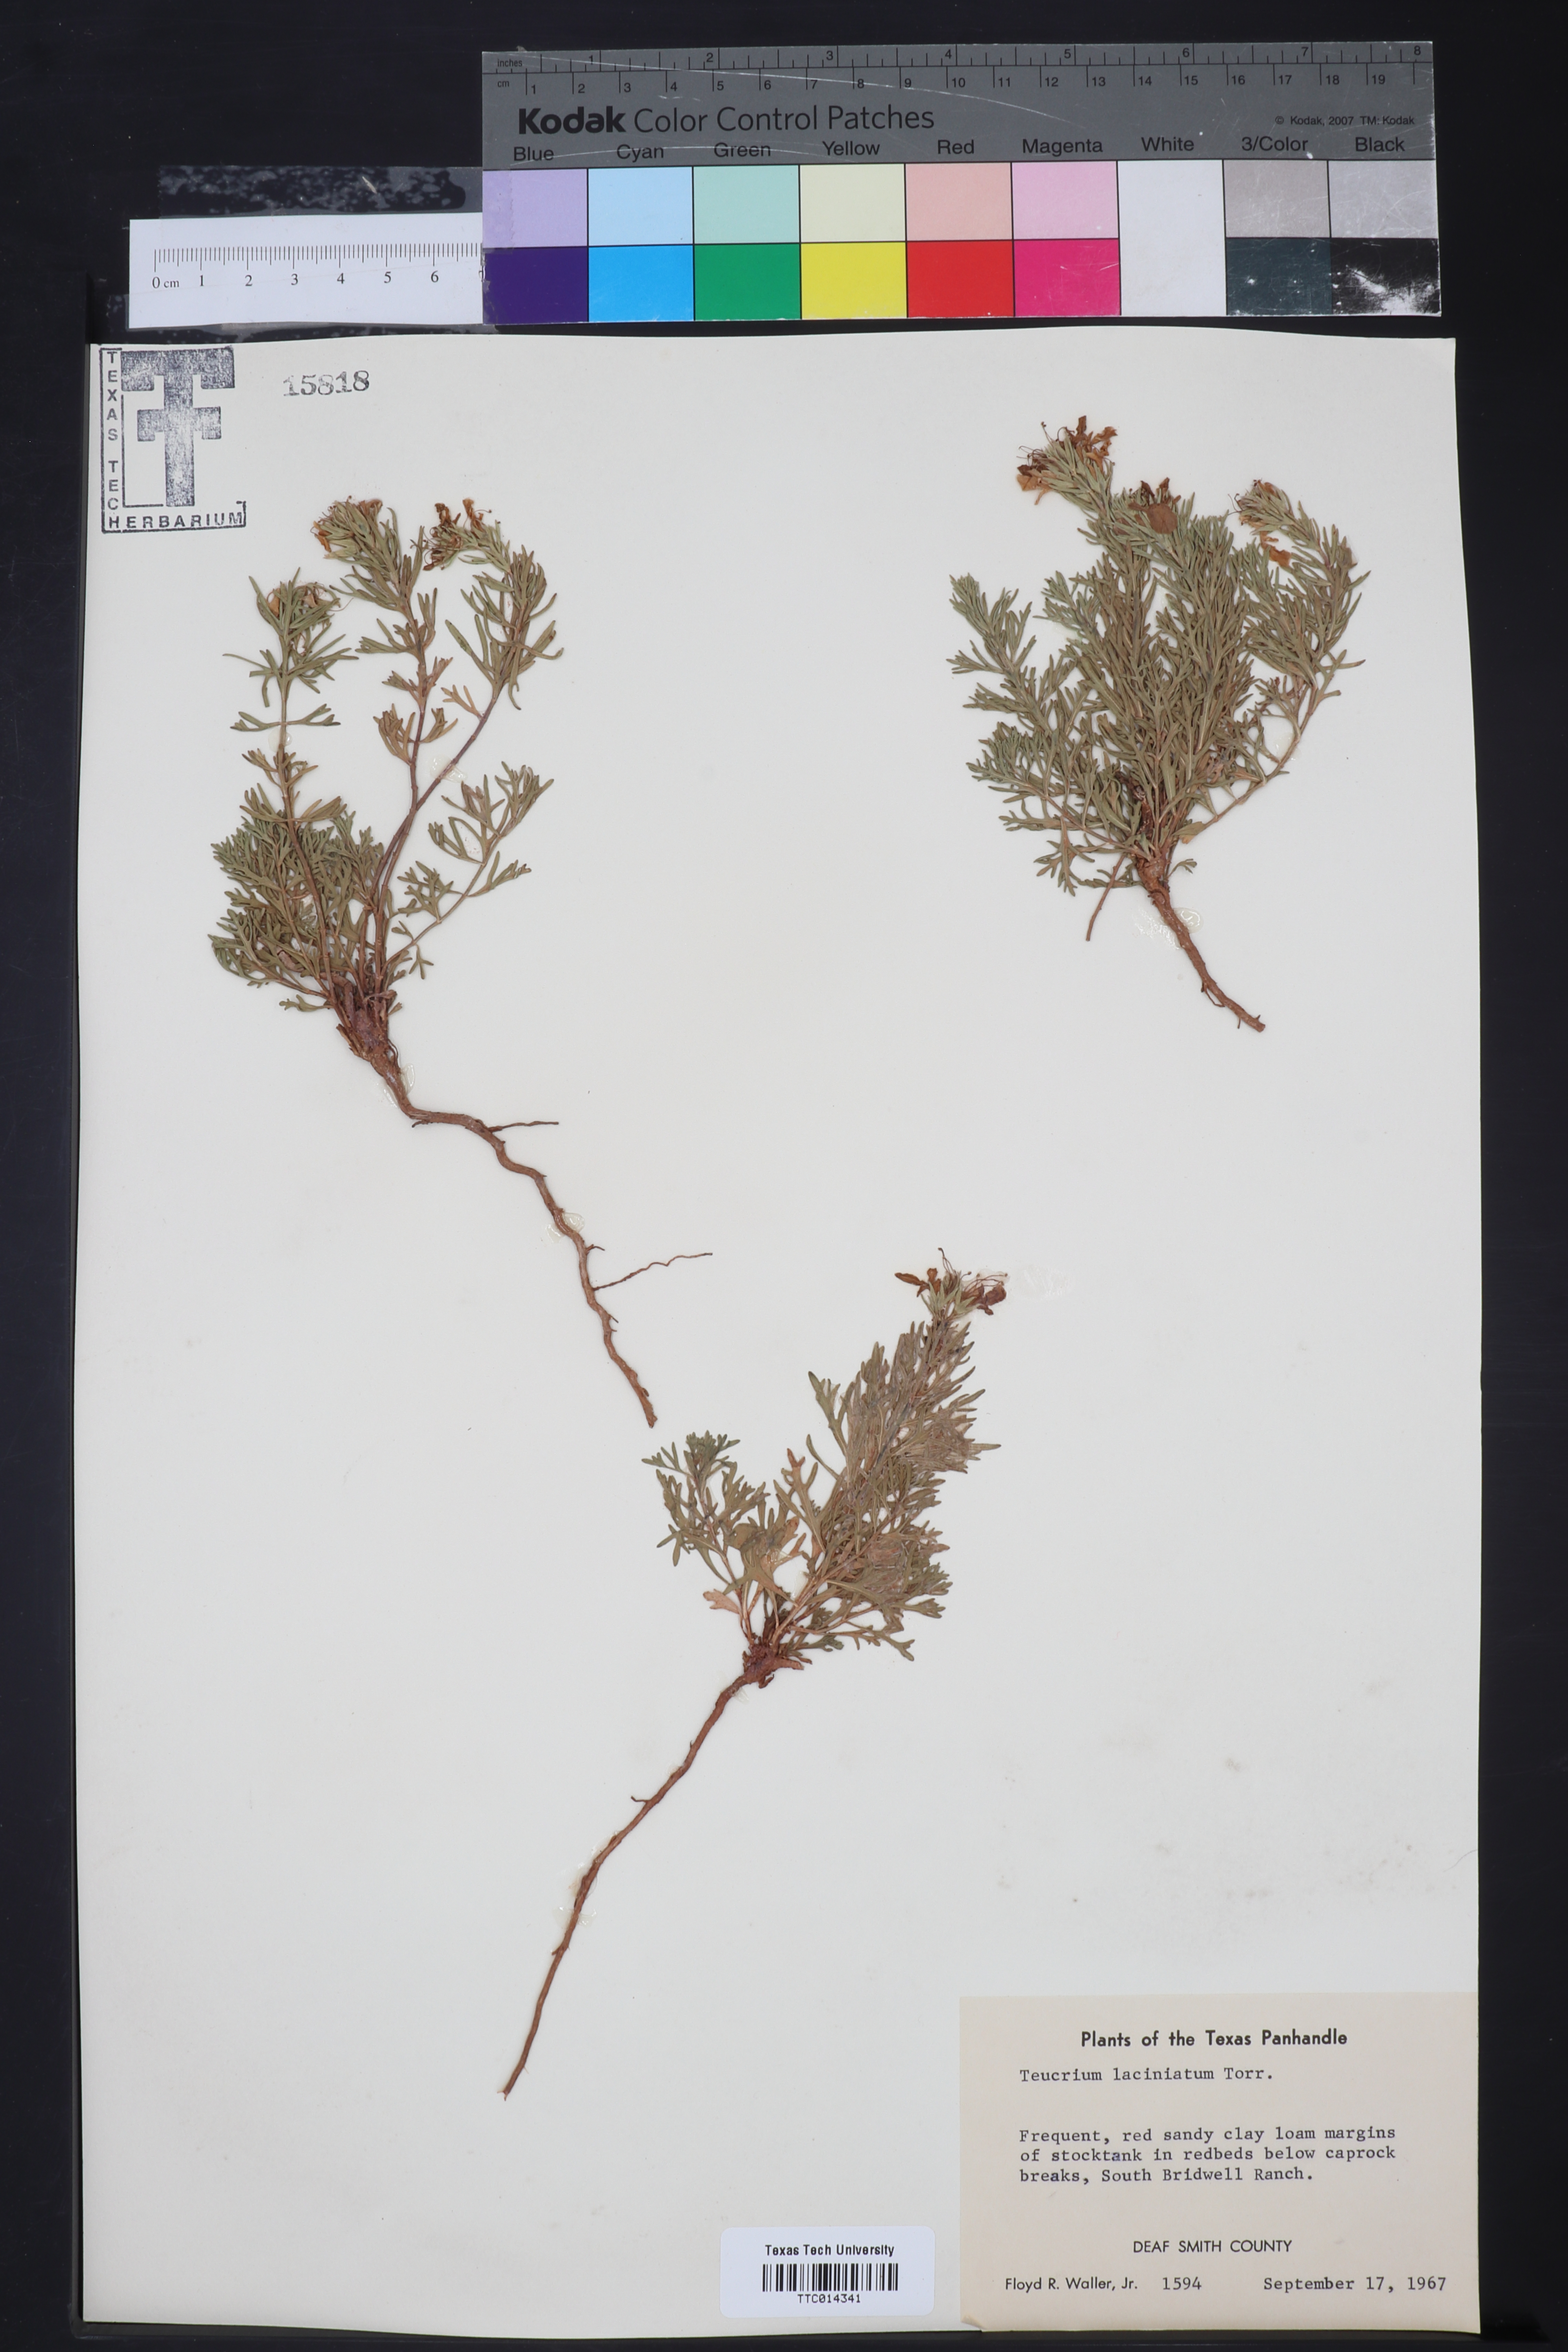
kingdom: Plantae
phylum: Tracheophyta
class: Magnoliopsida
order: Lamiales
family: Lamiaceae
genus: Teucrium
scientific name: Teucrium laciniatum
